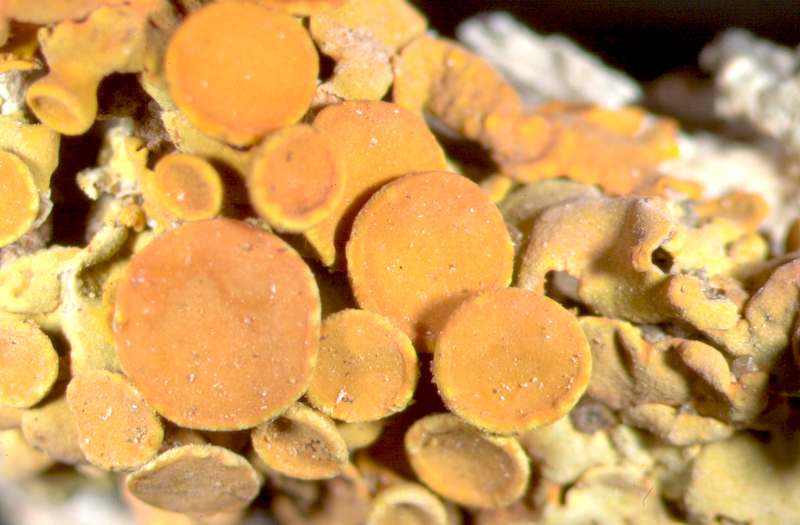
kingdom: Fungi
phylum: Ascomycota
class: Arthoniomycetes
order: Arthoniales
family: Opegraphaceae
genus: Opegrapha
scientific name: Opegrapha
